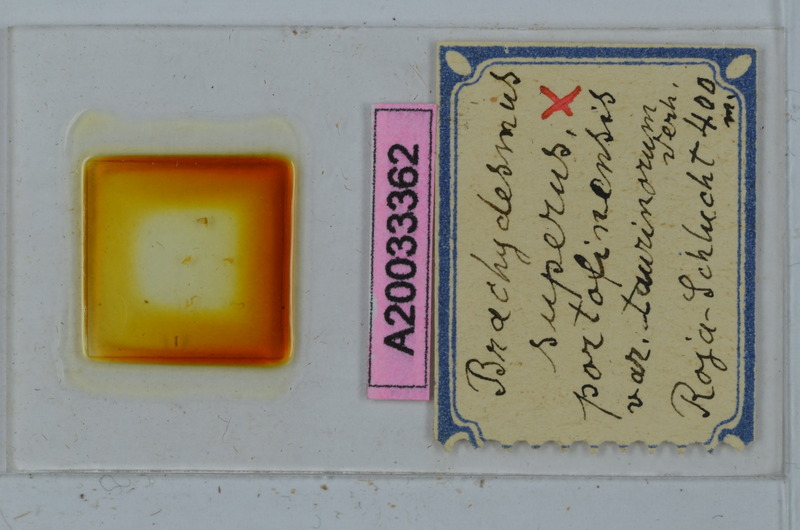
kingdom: Animalia
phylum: Arthropoda
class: Diplopoda
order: Polydesmida
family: Polydesmidae
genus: Brachydesmus
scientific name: Brachydesmus superus
